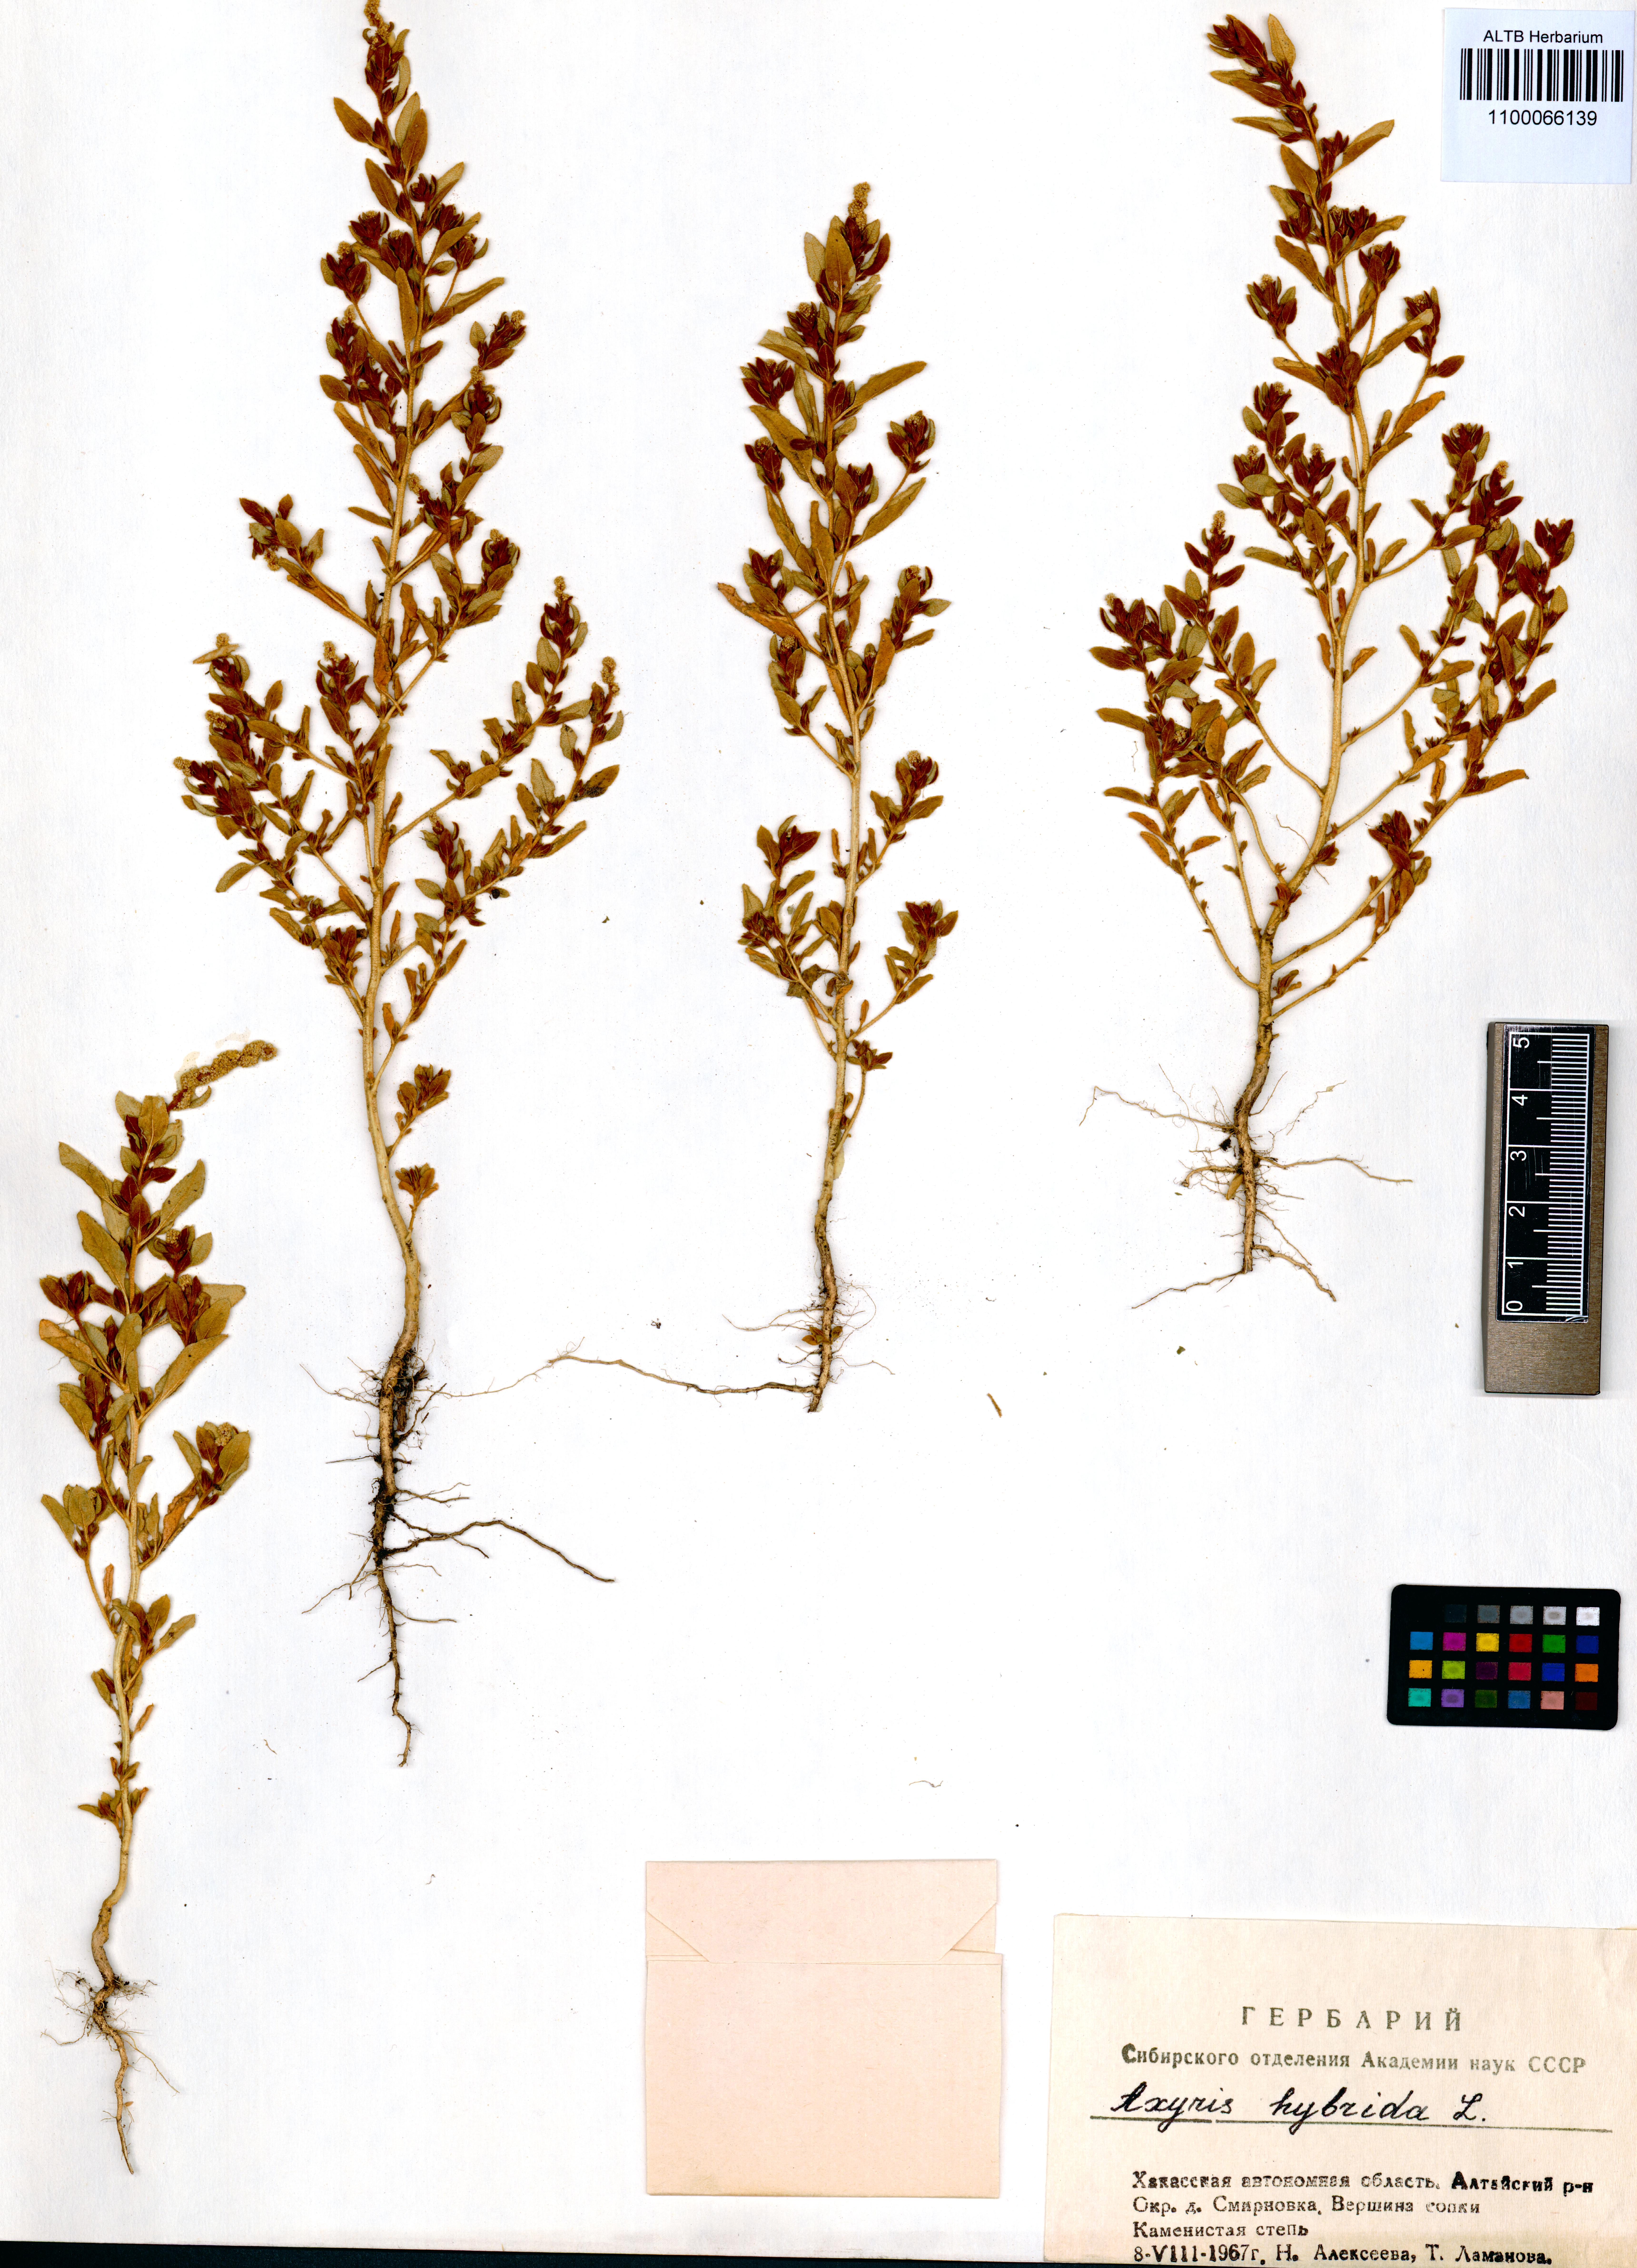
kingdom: Plantae
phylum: Tracheophyta
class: Magnoliopsida
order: Caryophyllales
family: Amaranthaceae
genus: Axyris
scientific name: Axyris hybrida
